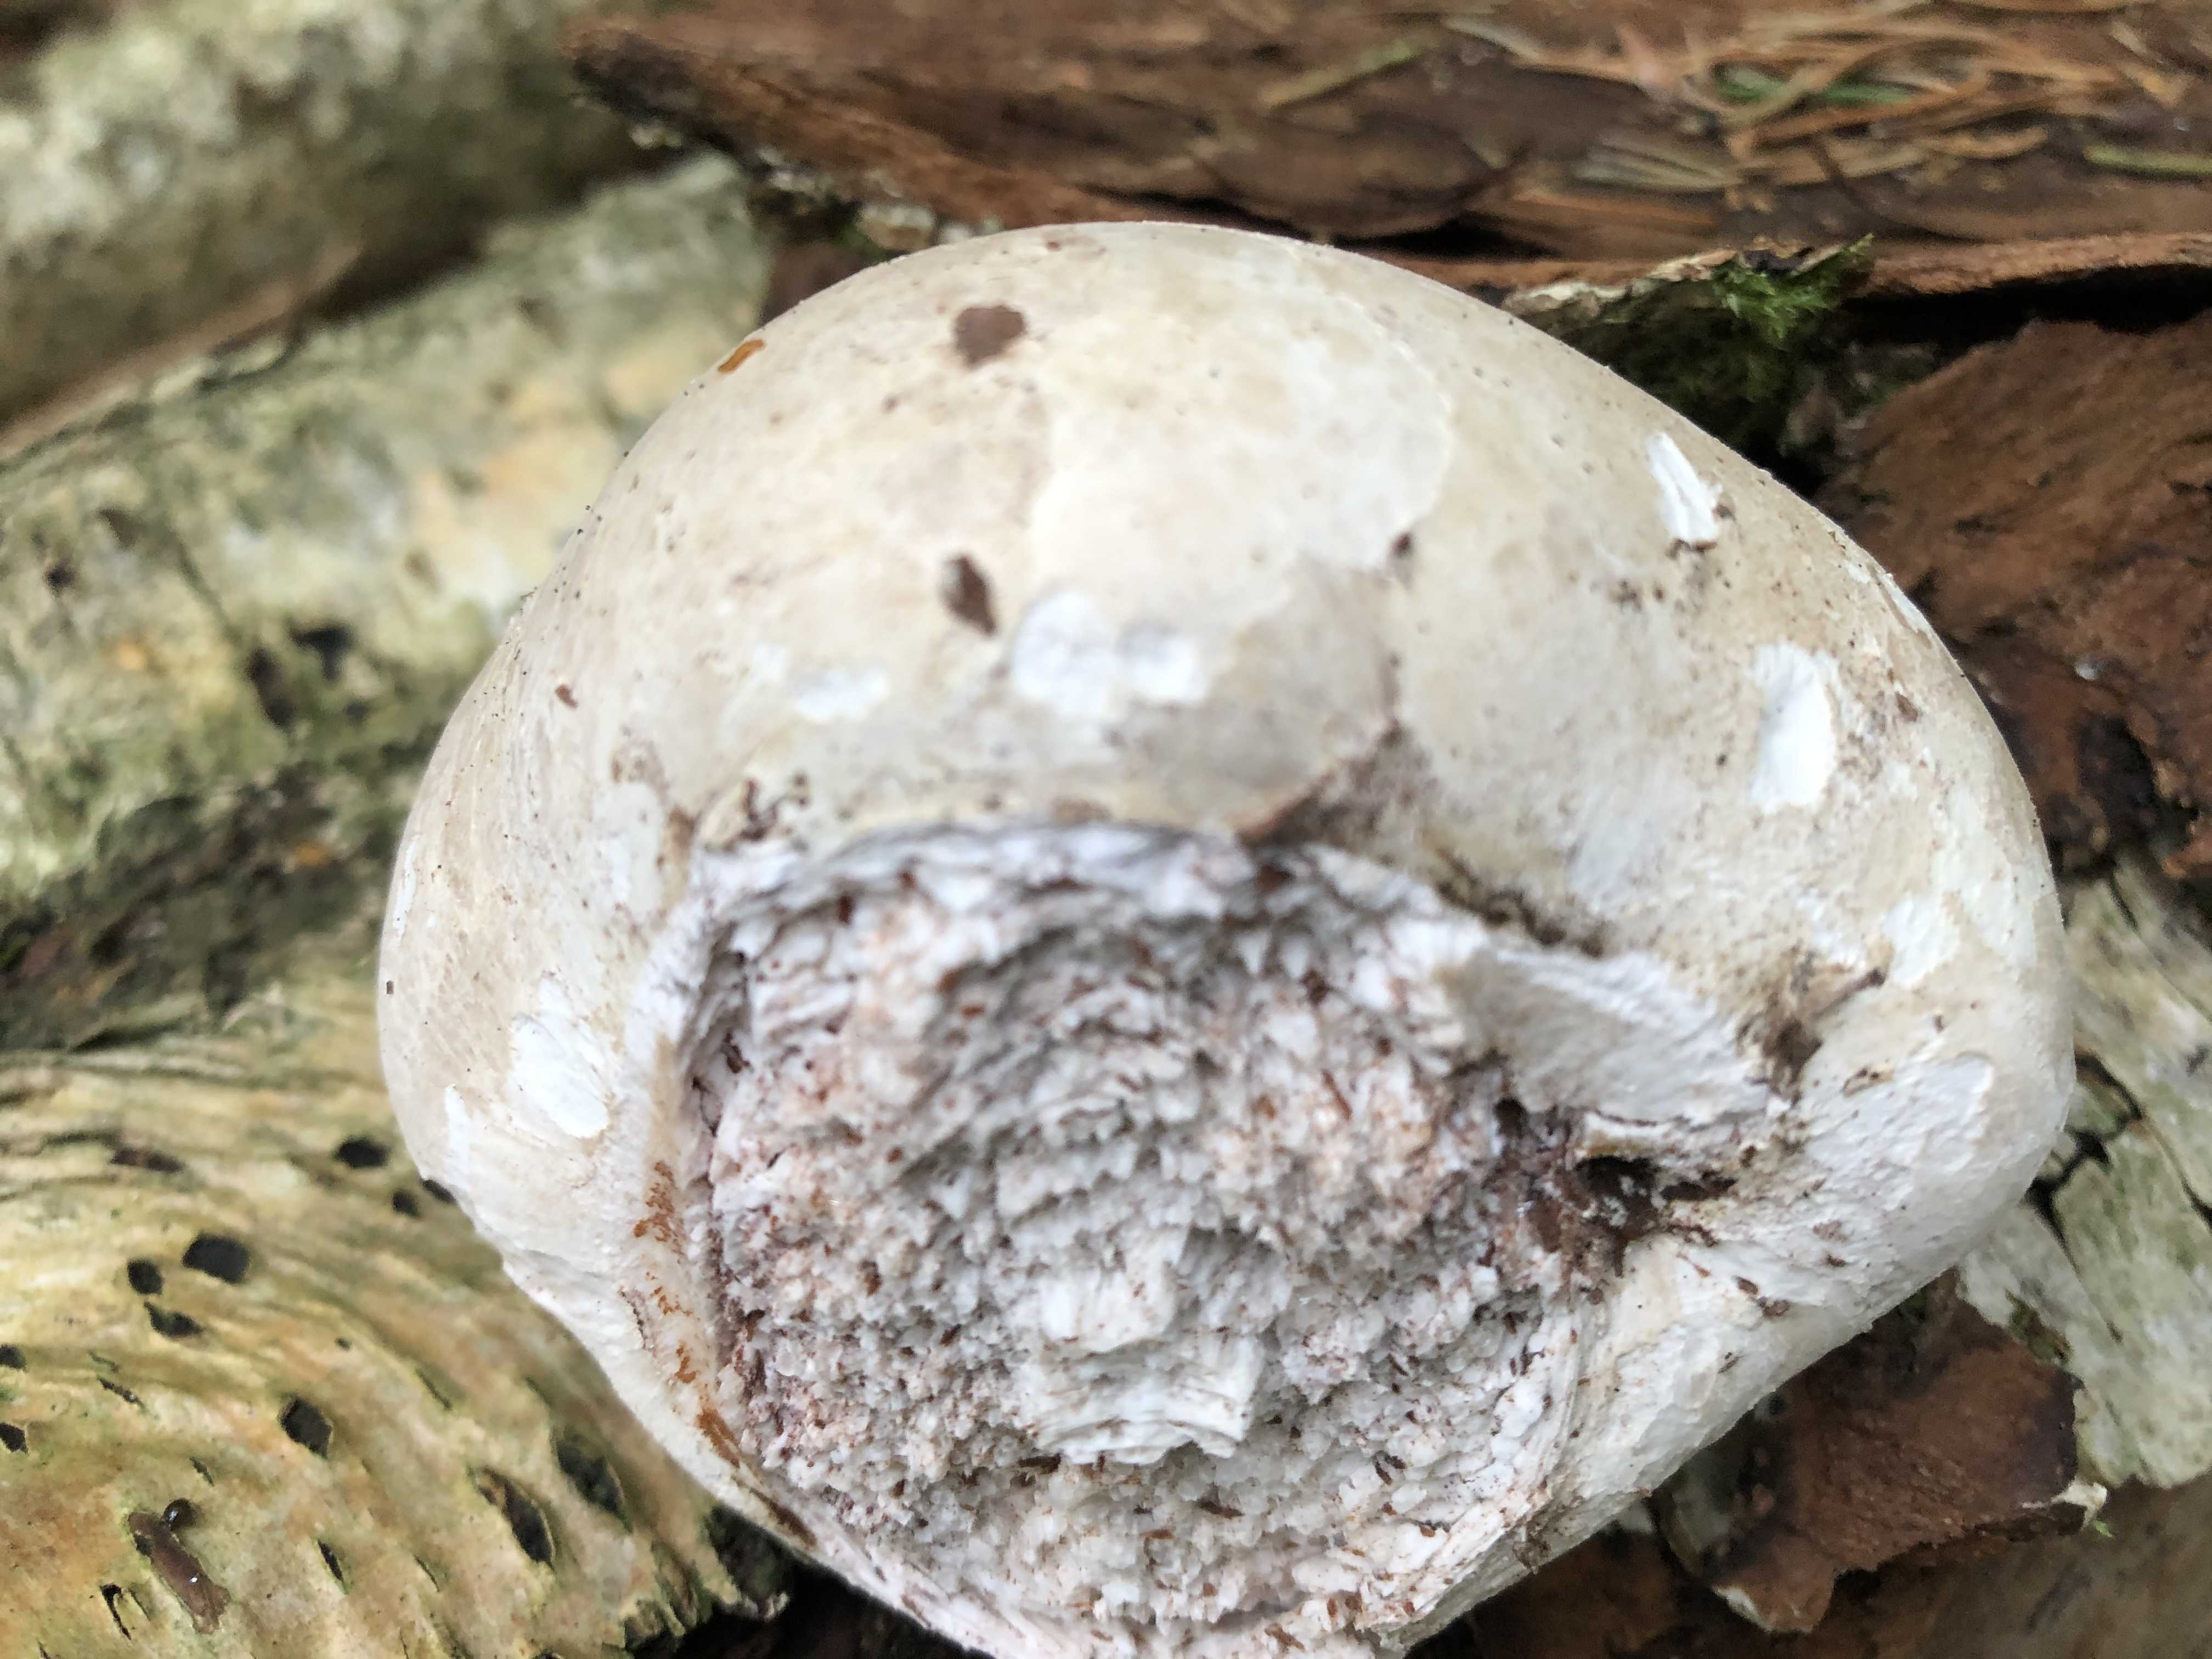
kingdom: Fungi
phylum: Basidiomycota
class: Agaricomycetes
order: Polyporales
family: Fomitopsidaceae
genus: Fomitopsis
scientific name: Fomitopsis betulina
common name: birkeporesvamp
